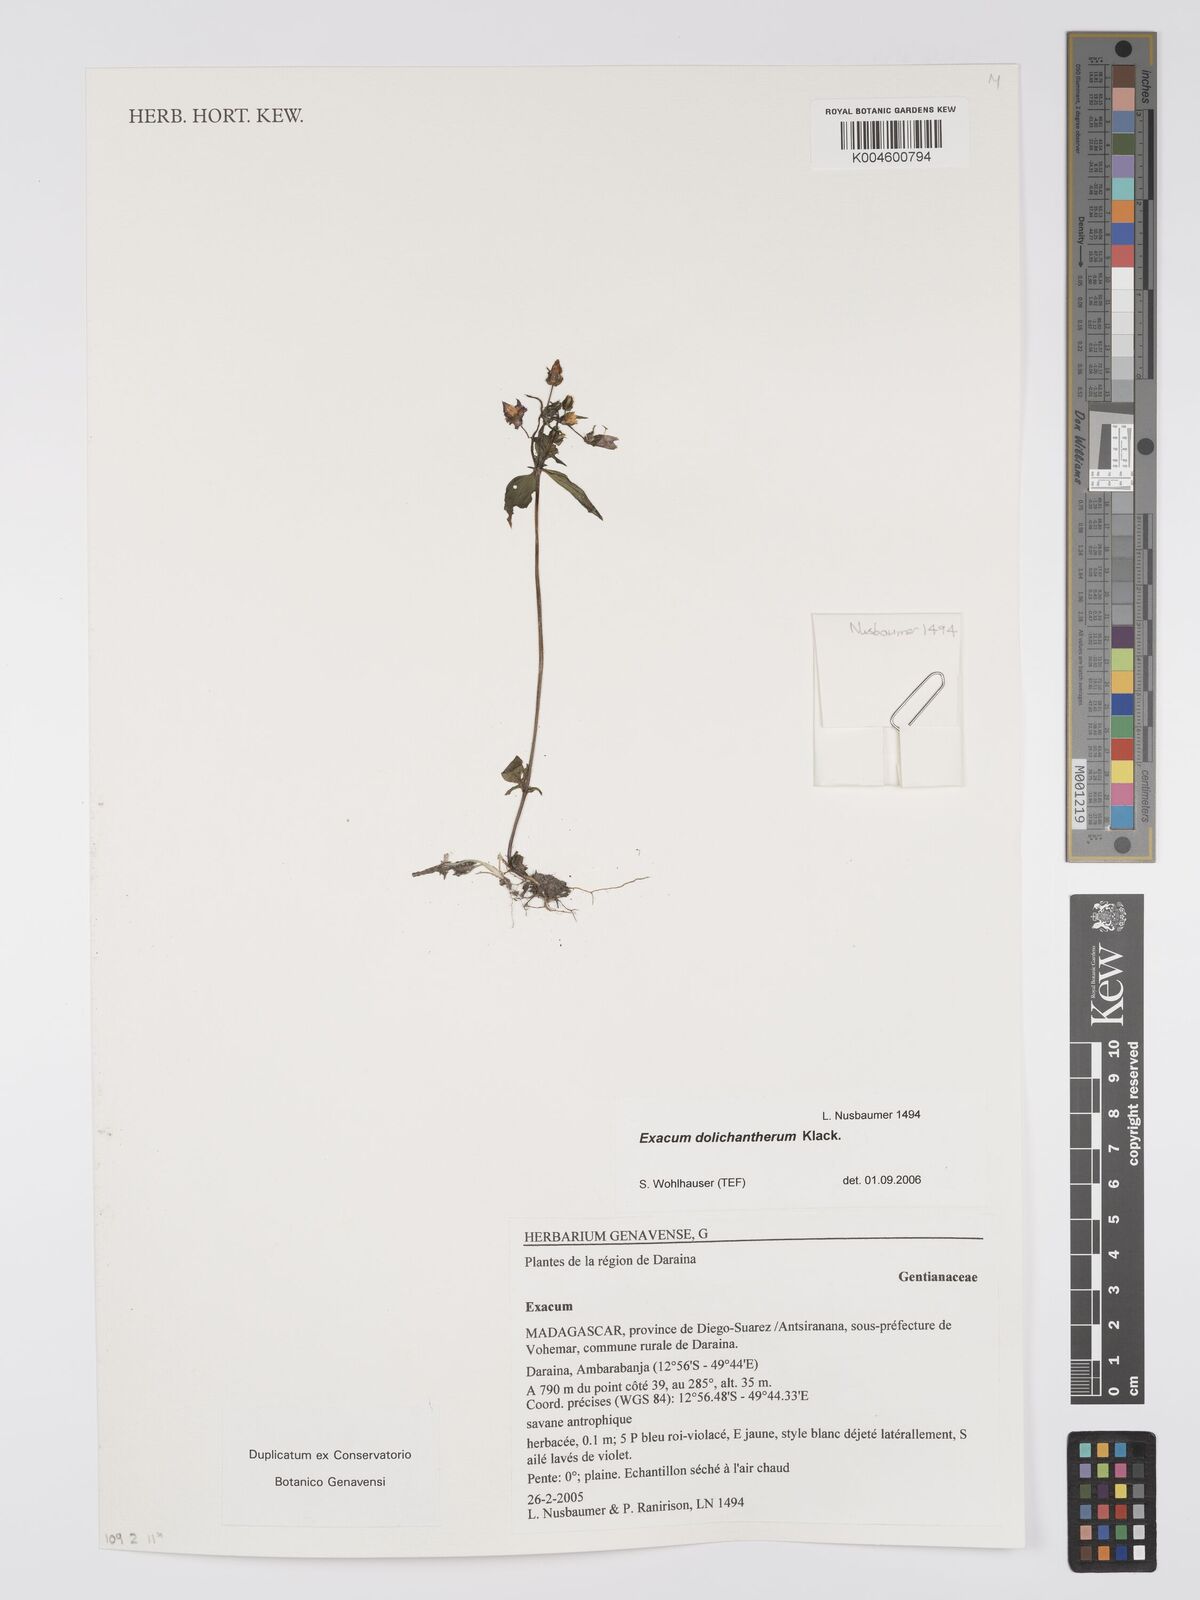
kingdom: Plantae
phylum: Tracheophyta
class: Magnoliopsida
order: Gentianales
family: Gentianaceae
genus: Exacum
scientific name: Exacum dolichantherum
